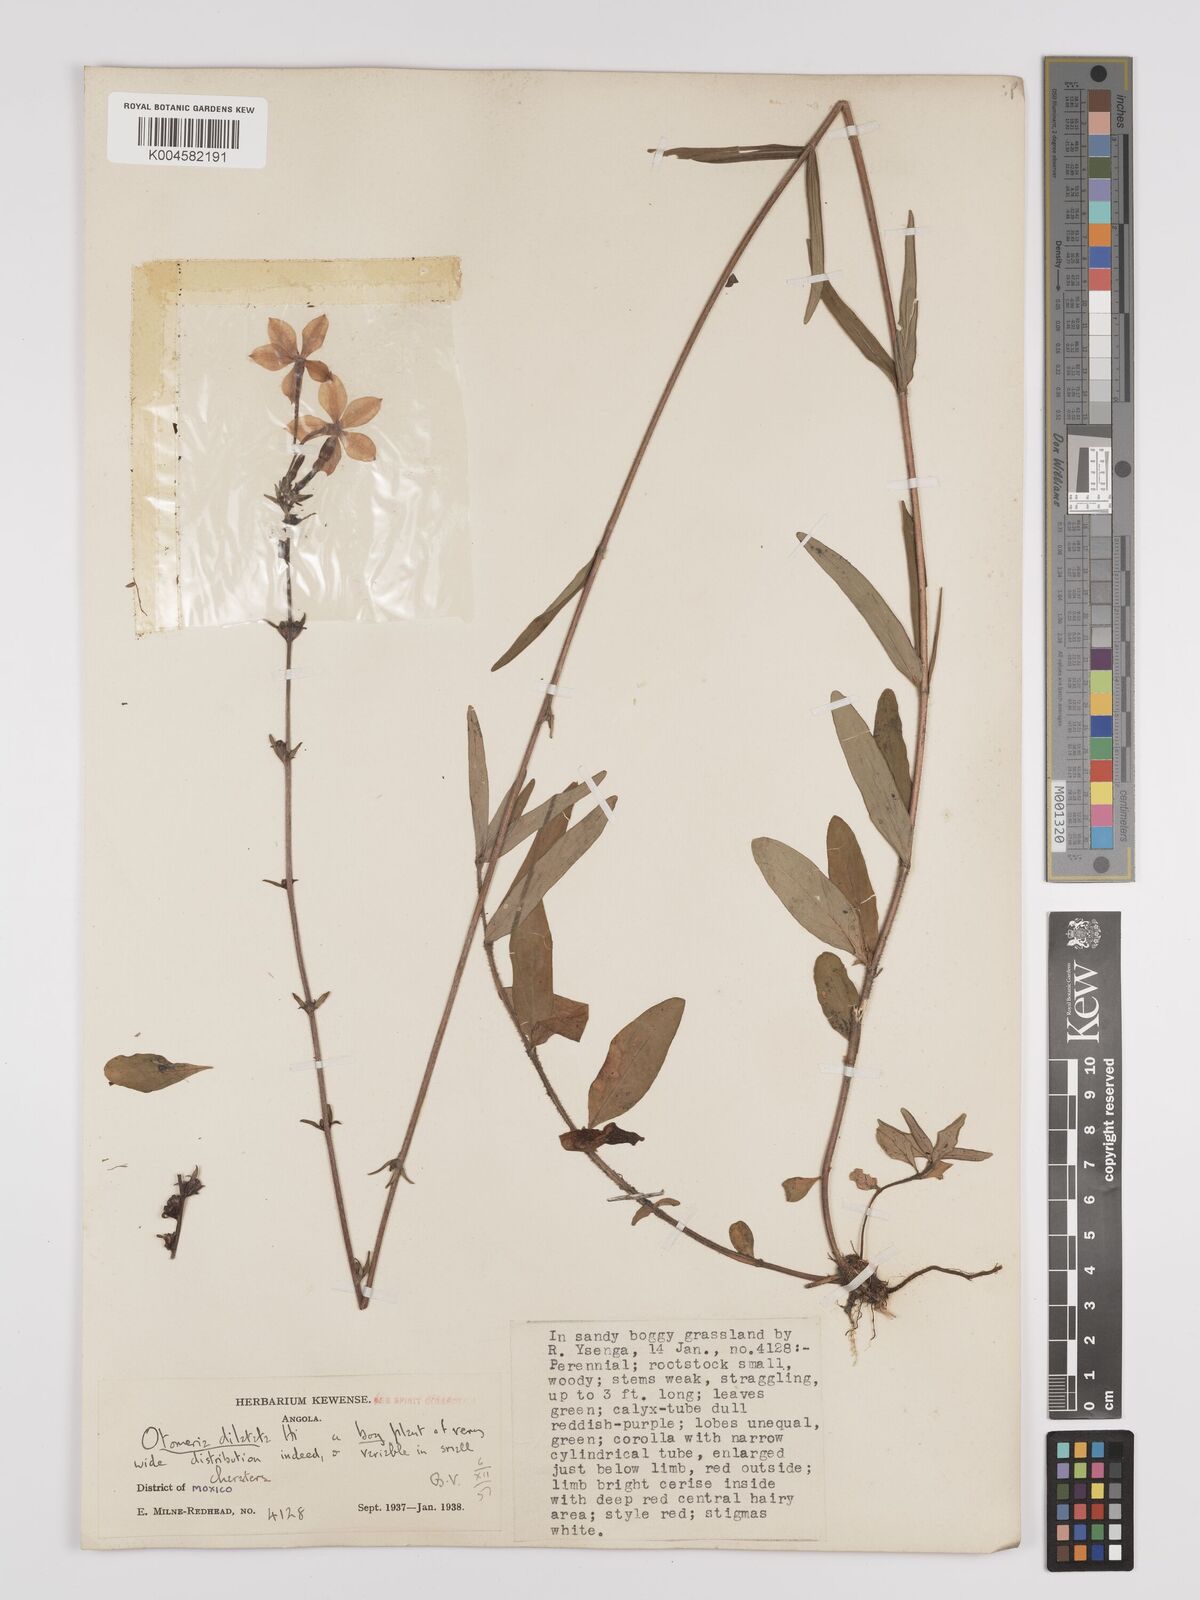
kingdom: Plantae
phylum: Tracheophyta
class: Magnoliopsida
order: Gentianales
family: Rubiaceae
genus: Otomeria
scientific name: Otomeria elatior
